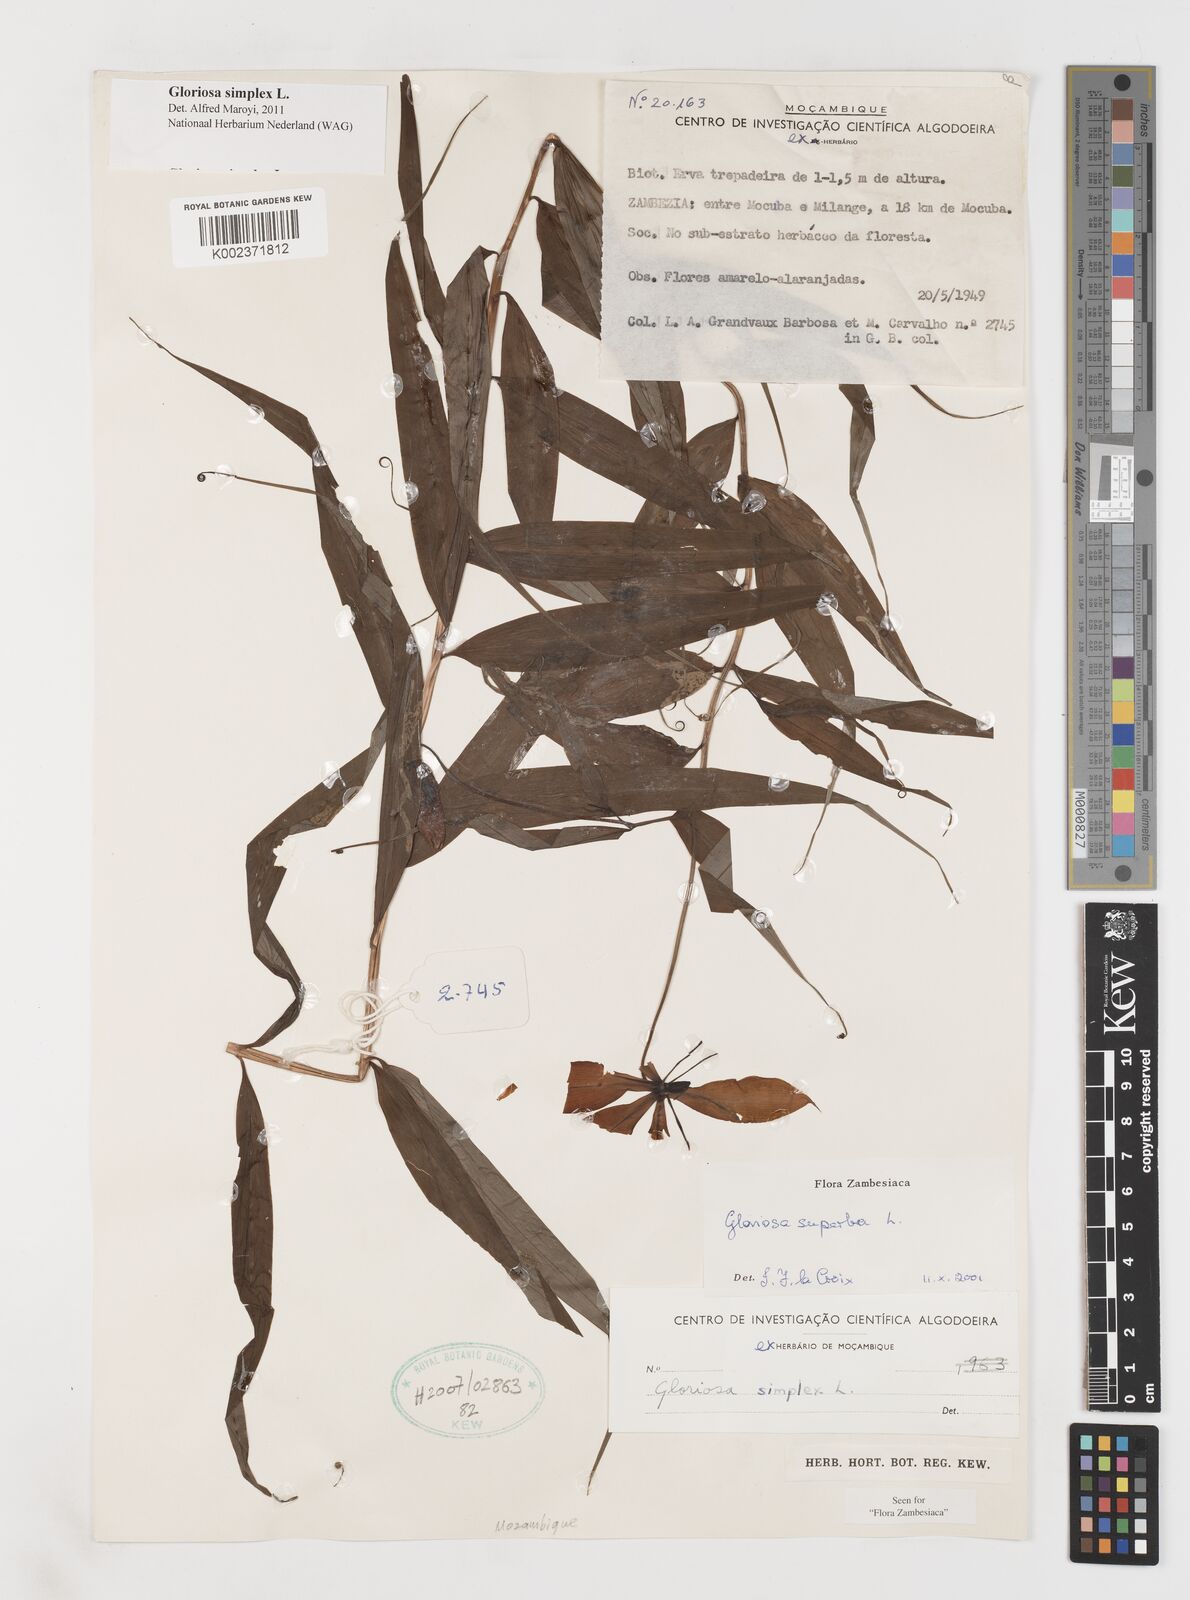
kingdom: Plantae
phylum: Tracheophyta
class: Liliopsida
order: Liliales
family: Colchicaceae
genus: Gloriosa
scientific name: Gloriosa simplex
